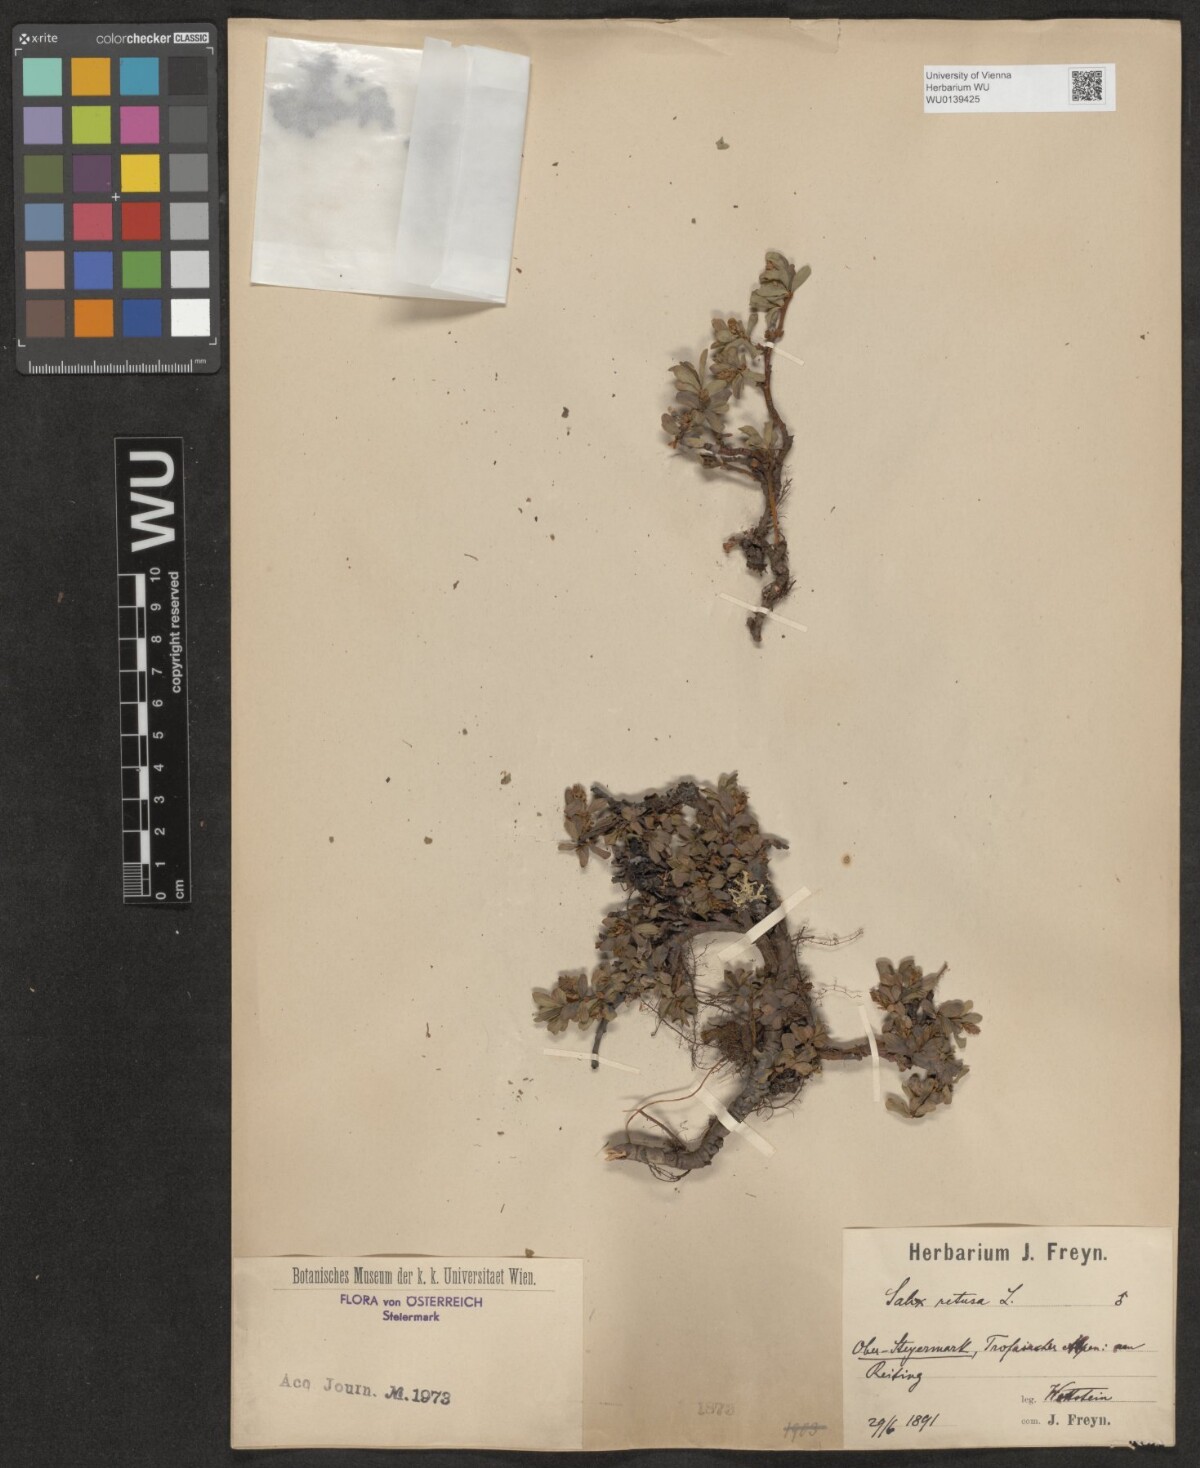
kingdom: Plantae
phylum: Tracheophyta
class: Magnoliopsida
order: Malpighiales
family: Salicaceae
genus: Salix
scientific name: Salix retusa
